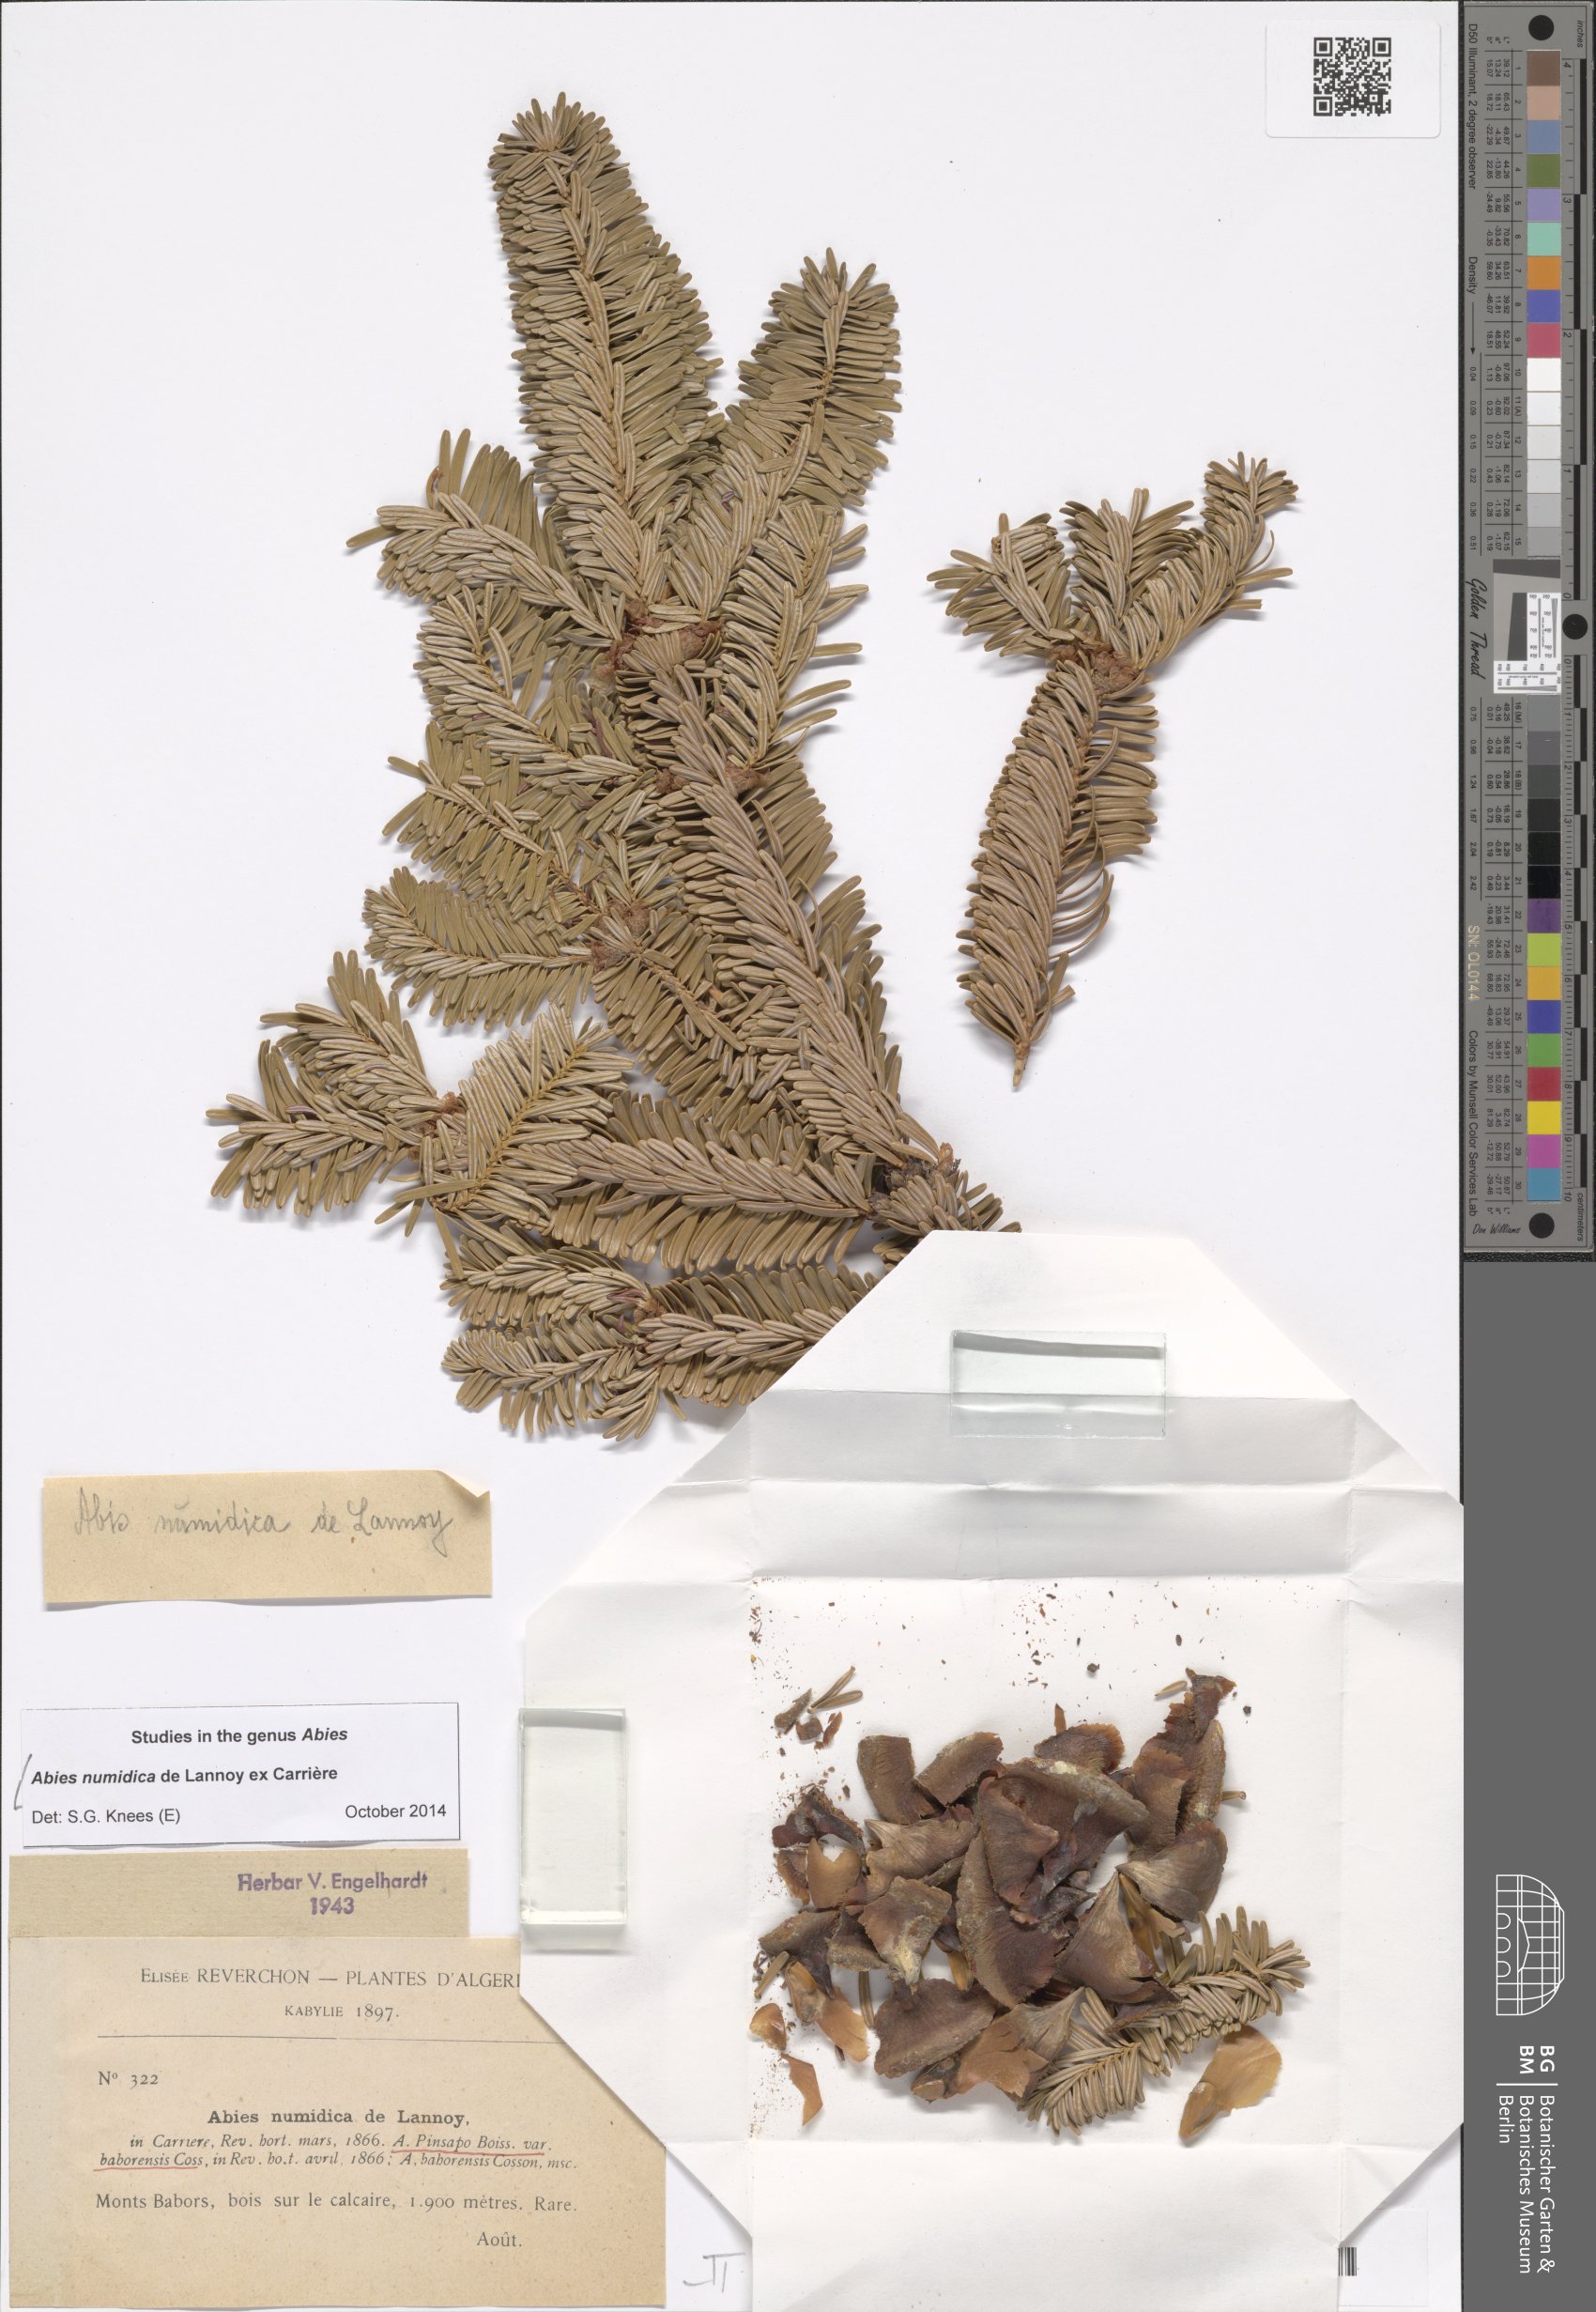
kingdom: Plantae
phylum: Tracheophyta
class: Pinopsida
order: Pinales
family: Pinaceae
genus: Abies
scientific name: Abies numidica
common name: Algerian fir
